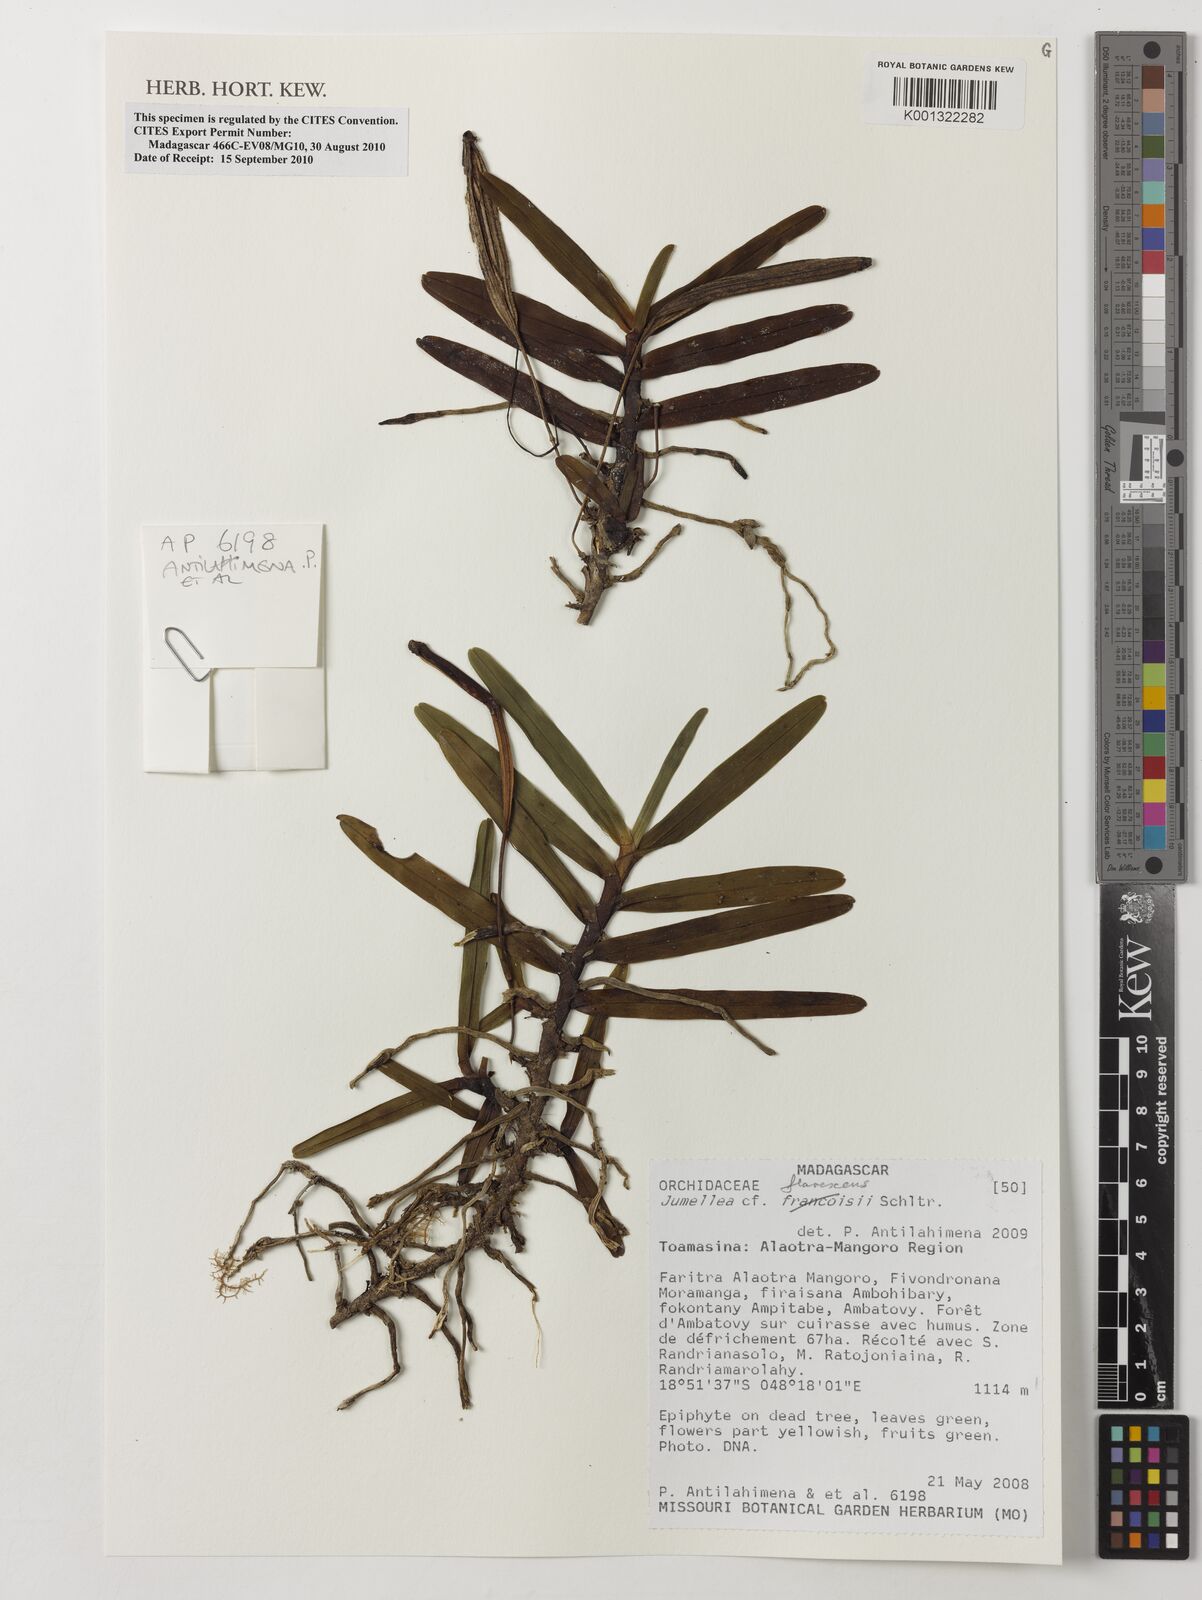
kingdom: Plantae
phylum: Tracheophyta
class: Liliopsida
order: Asparagales
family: Orchidaceae
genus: Jumellea
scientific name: Jumellea
